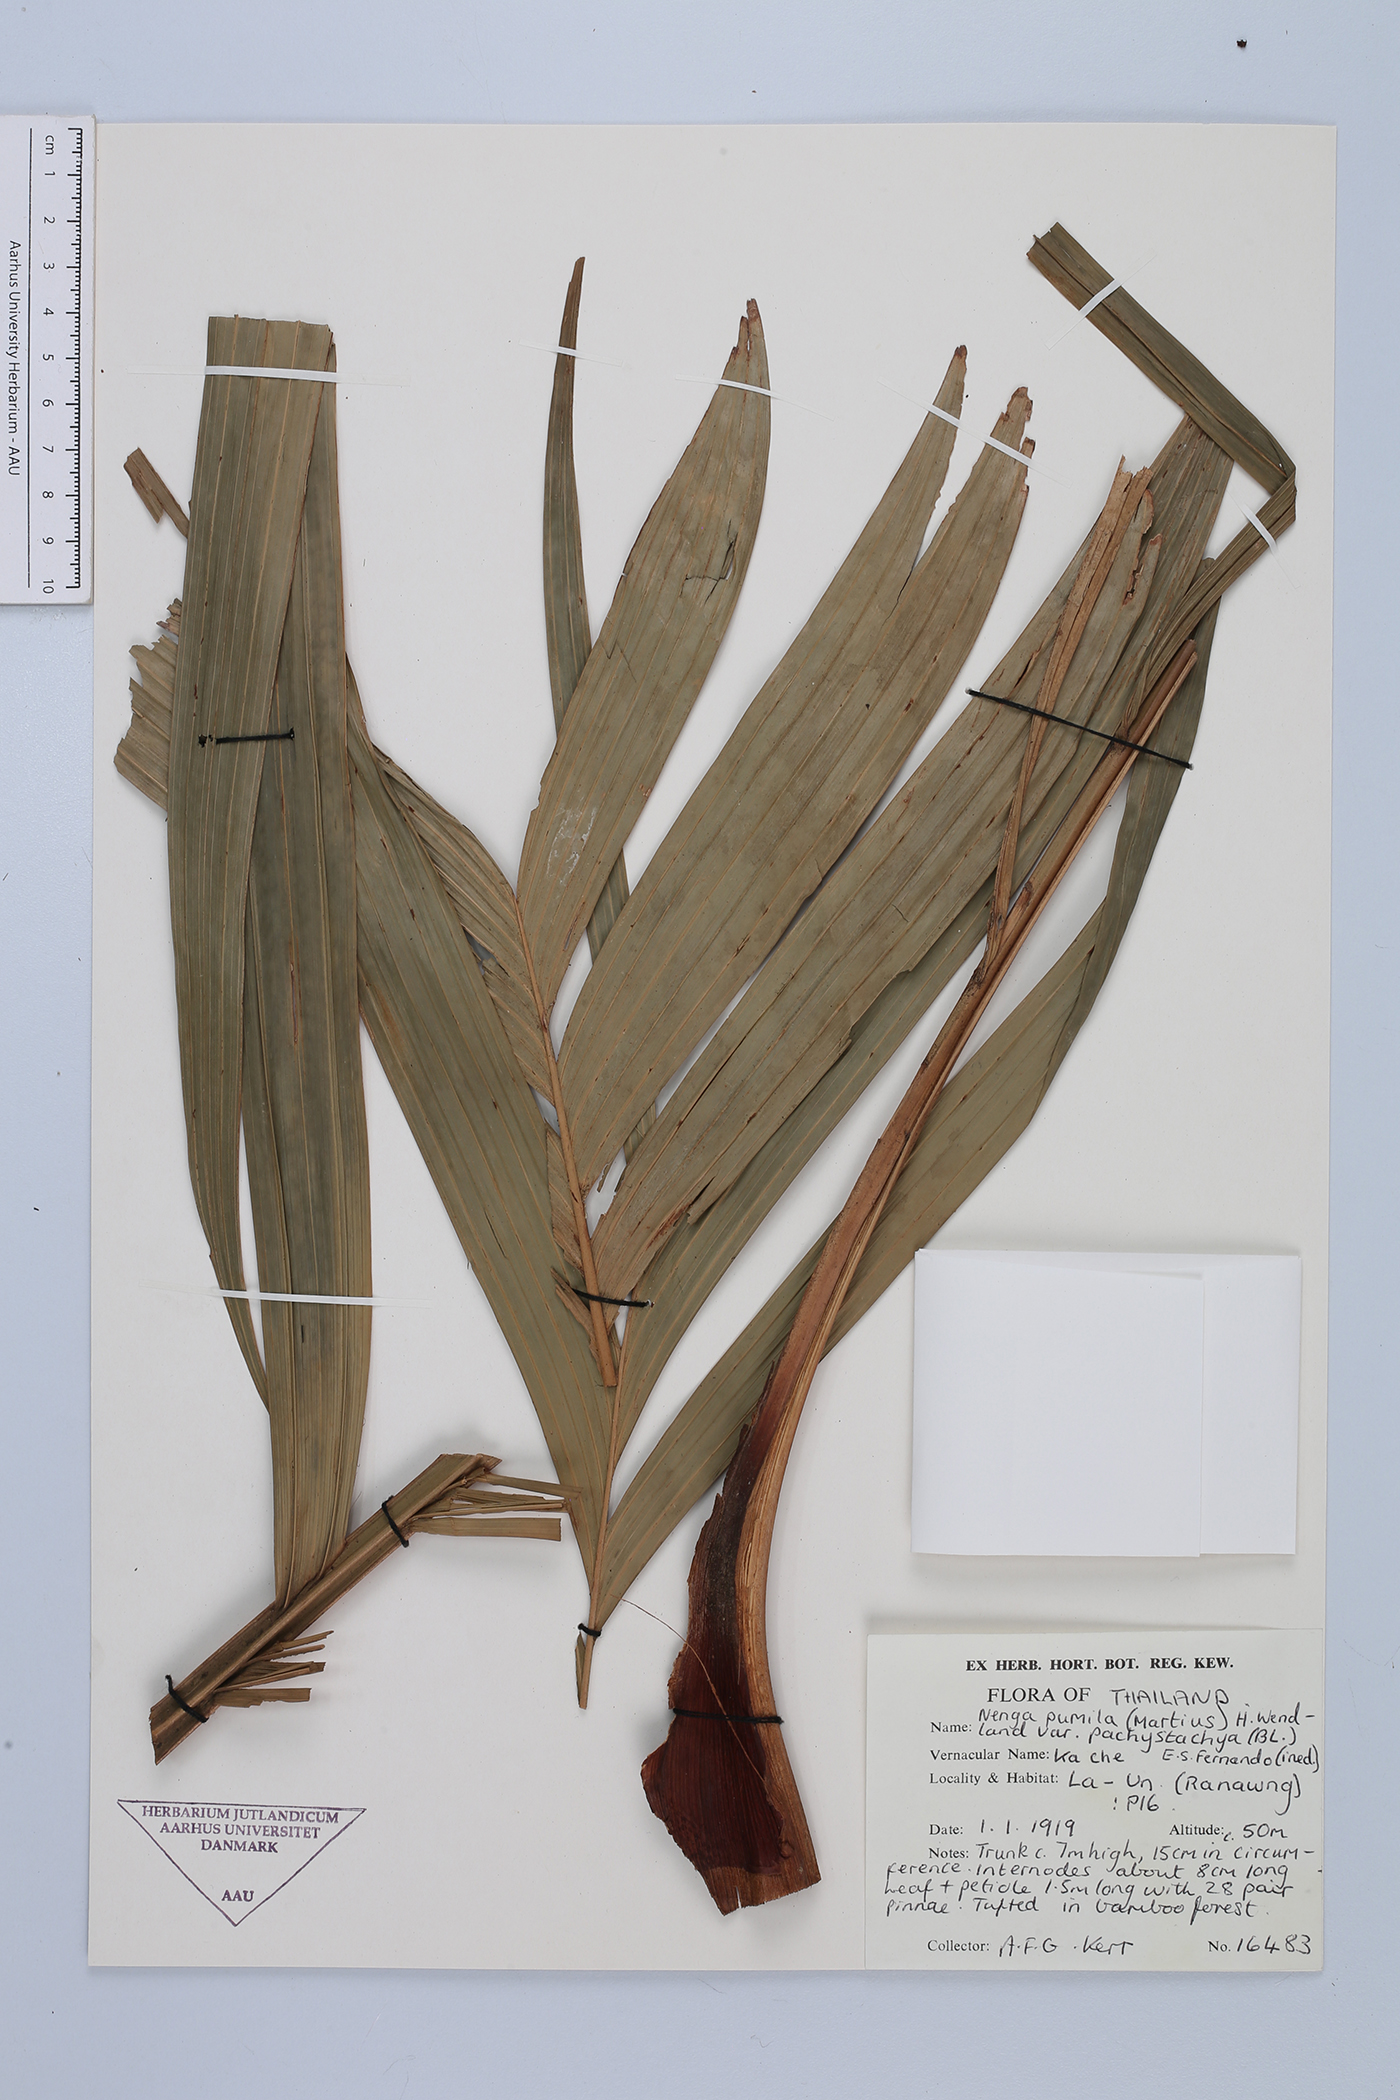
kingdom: Plantae
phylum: Tracheophyta
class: Liliopsida
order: Arecales
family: Arecaceae
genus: Nenga
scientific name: Nenga pumila
